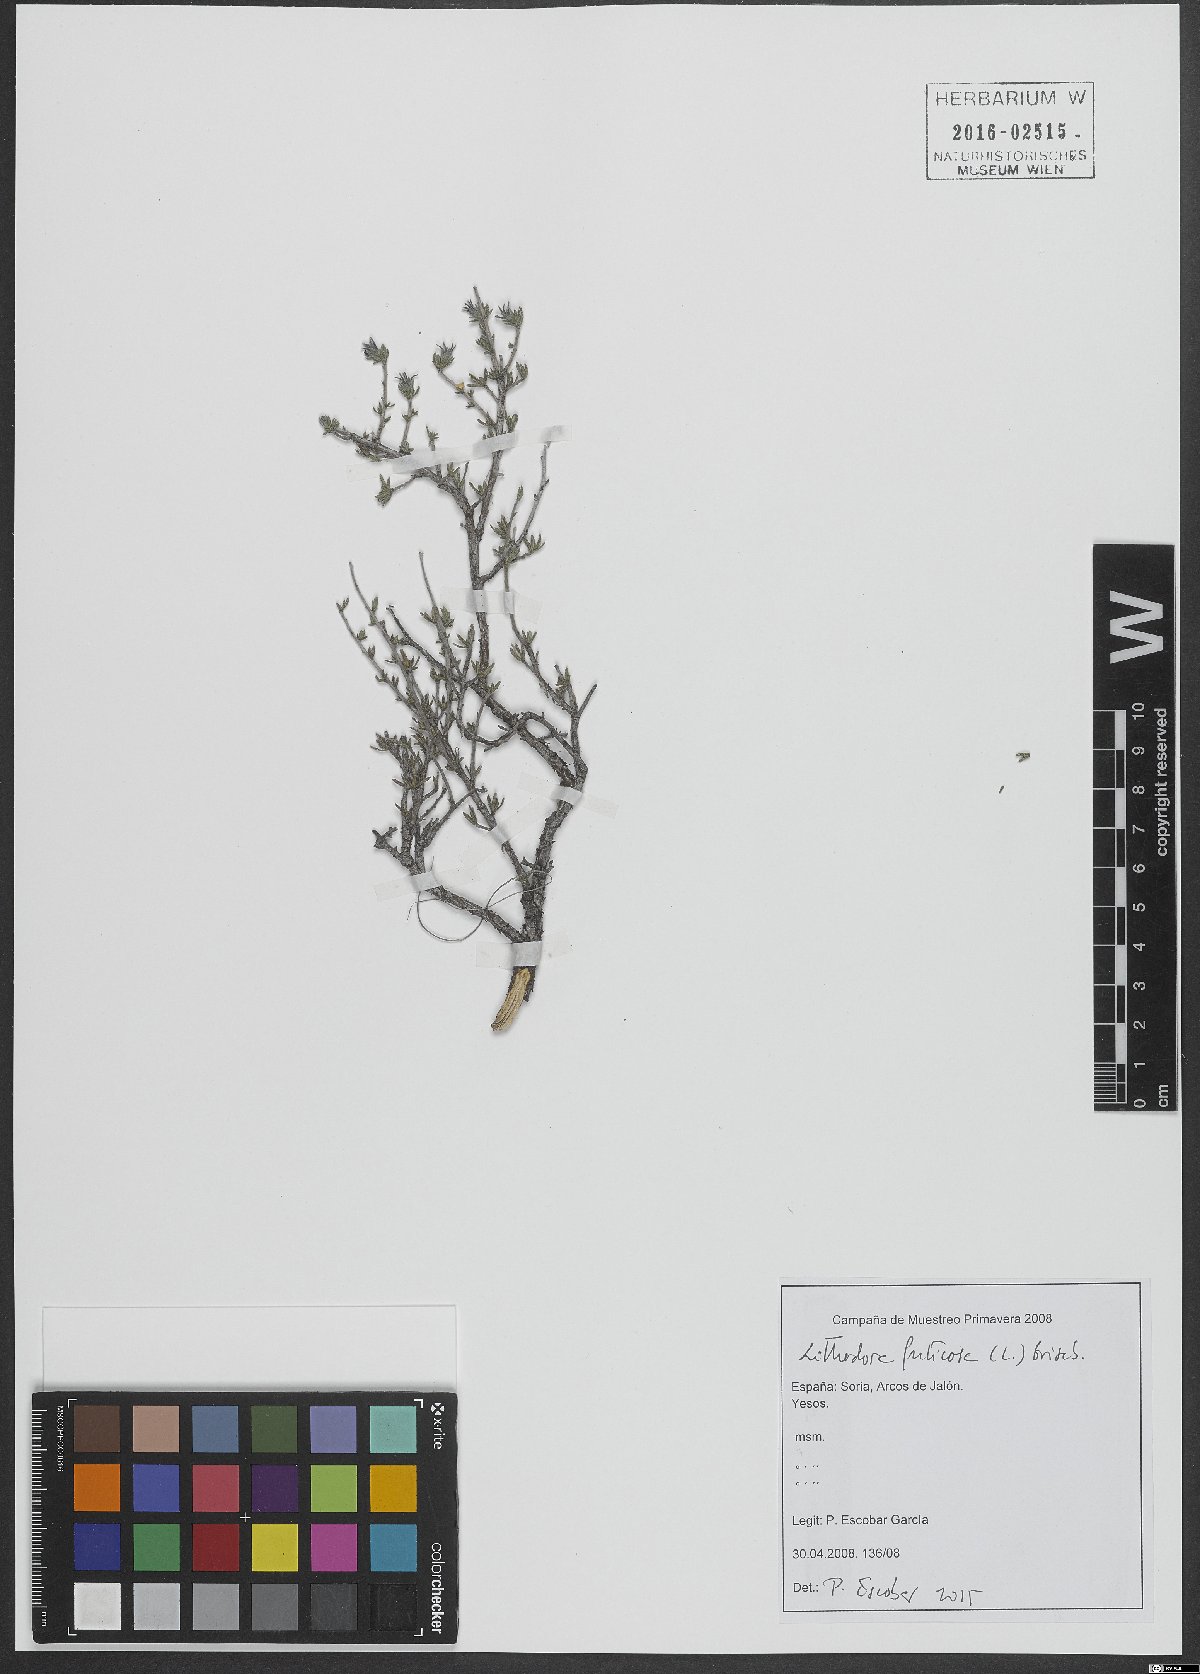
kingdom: Plantae
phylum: Tracheophyta
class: Magnoliopsida
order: Boraginales
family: Boraginaceae
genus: Lithodora
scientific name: Lithodora fruticosa
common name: Shrubby gromwell
